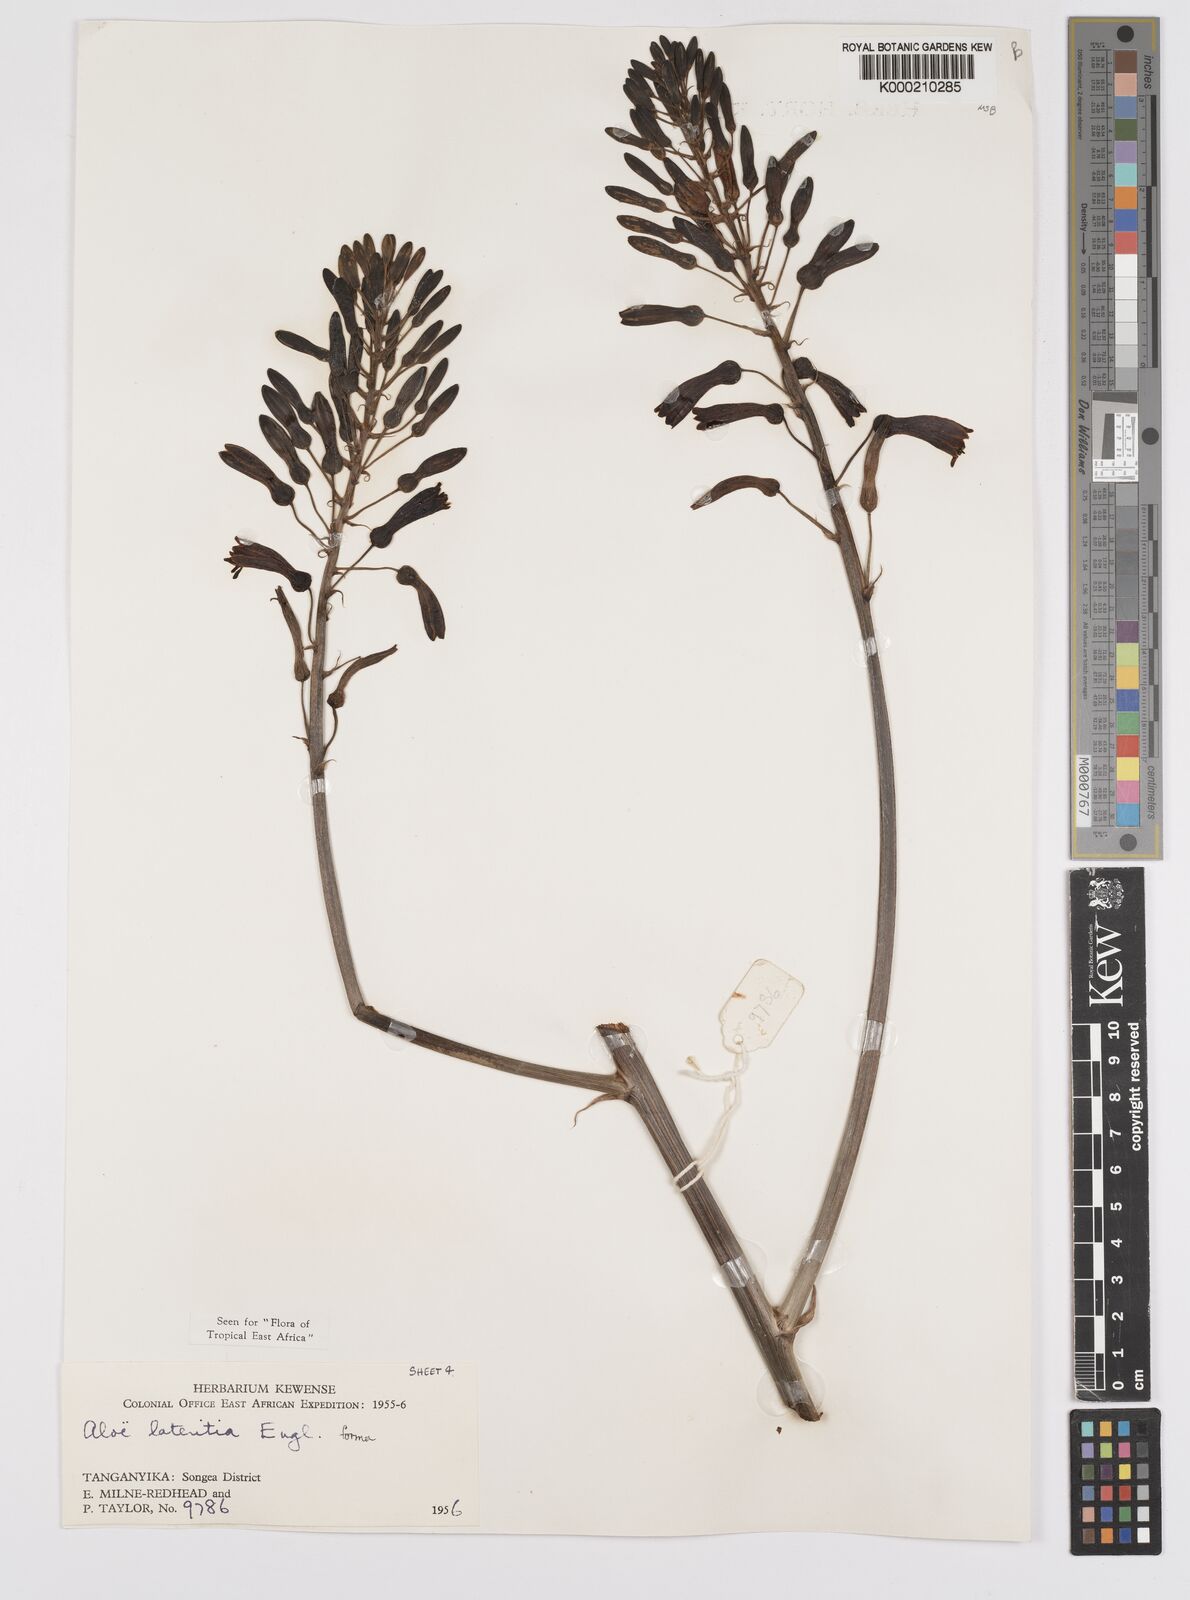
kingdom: Plantae
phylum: Tracheophyta
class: Liliopsida
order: Asparagales
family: Asphodelaceae
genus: Aloe
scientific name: Aloe lateritia
